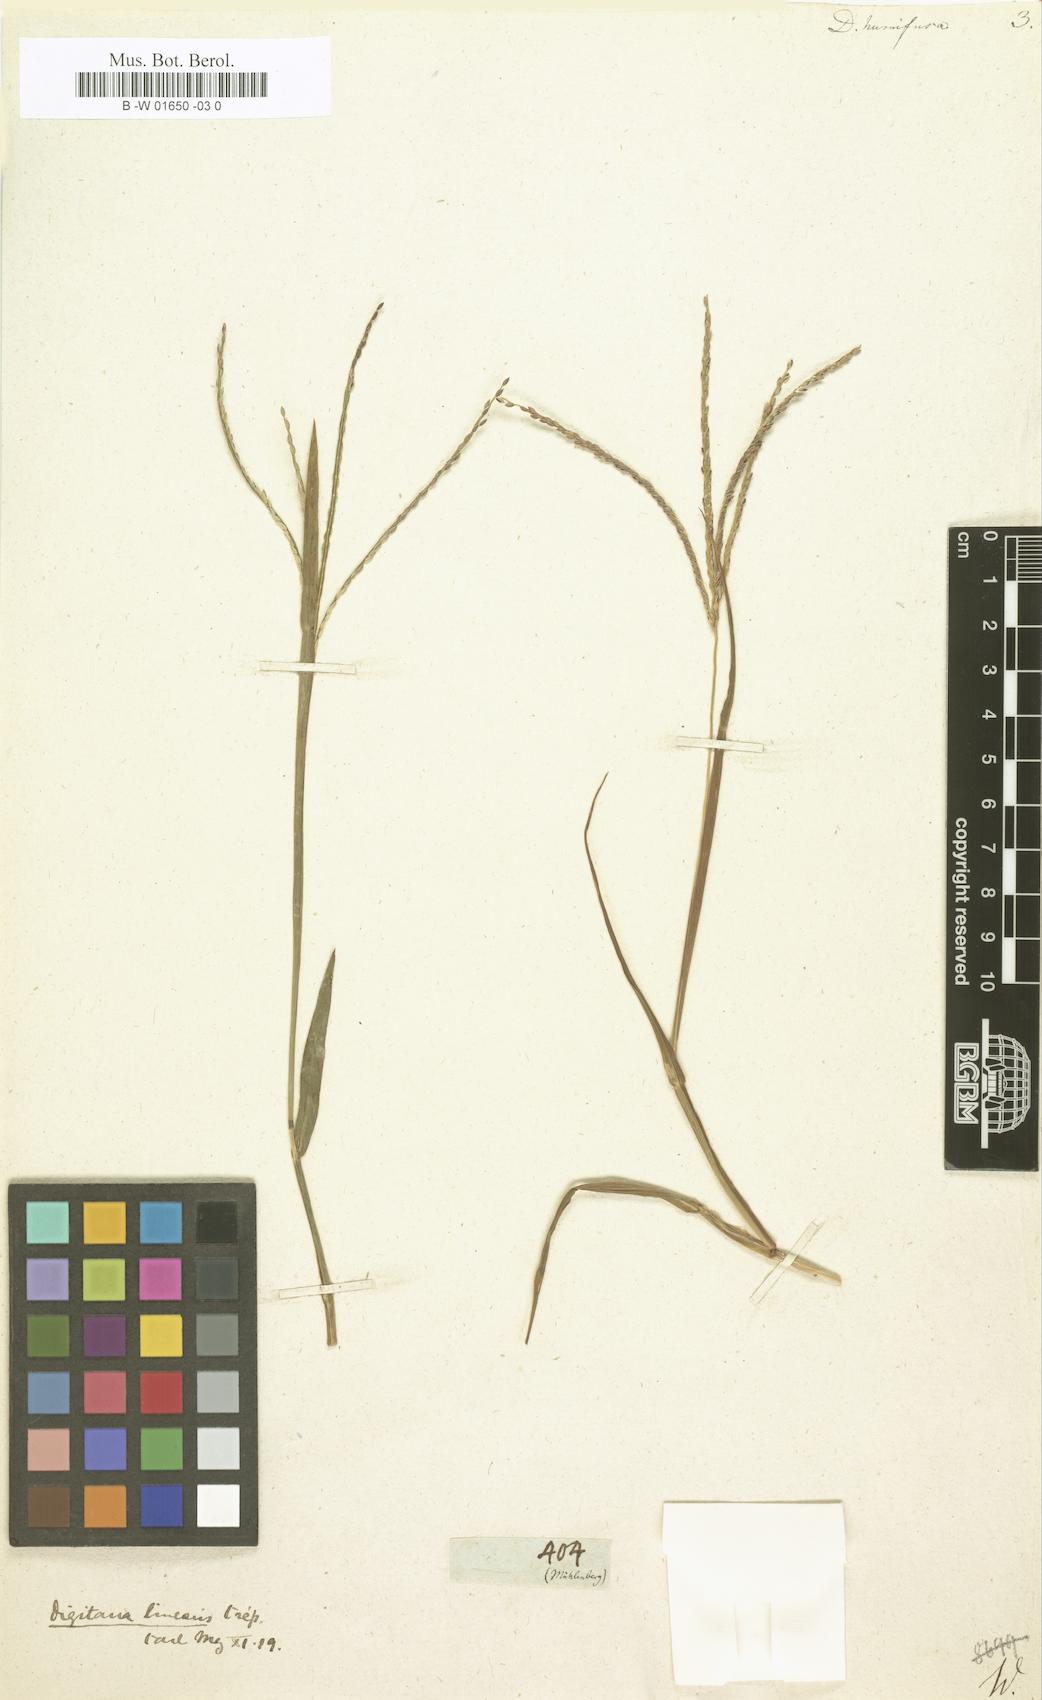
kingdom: Plantae
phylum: Tracheophyta
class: Liliopsida
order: Poales
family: Poaceae
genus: Digitaria
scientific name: Digitaria ischaemum
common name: Smooth crabgrass
